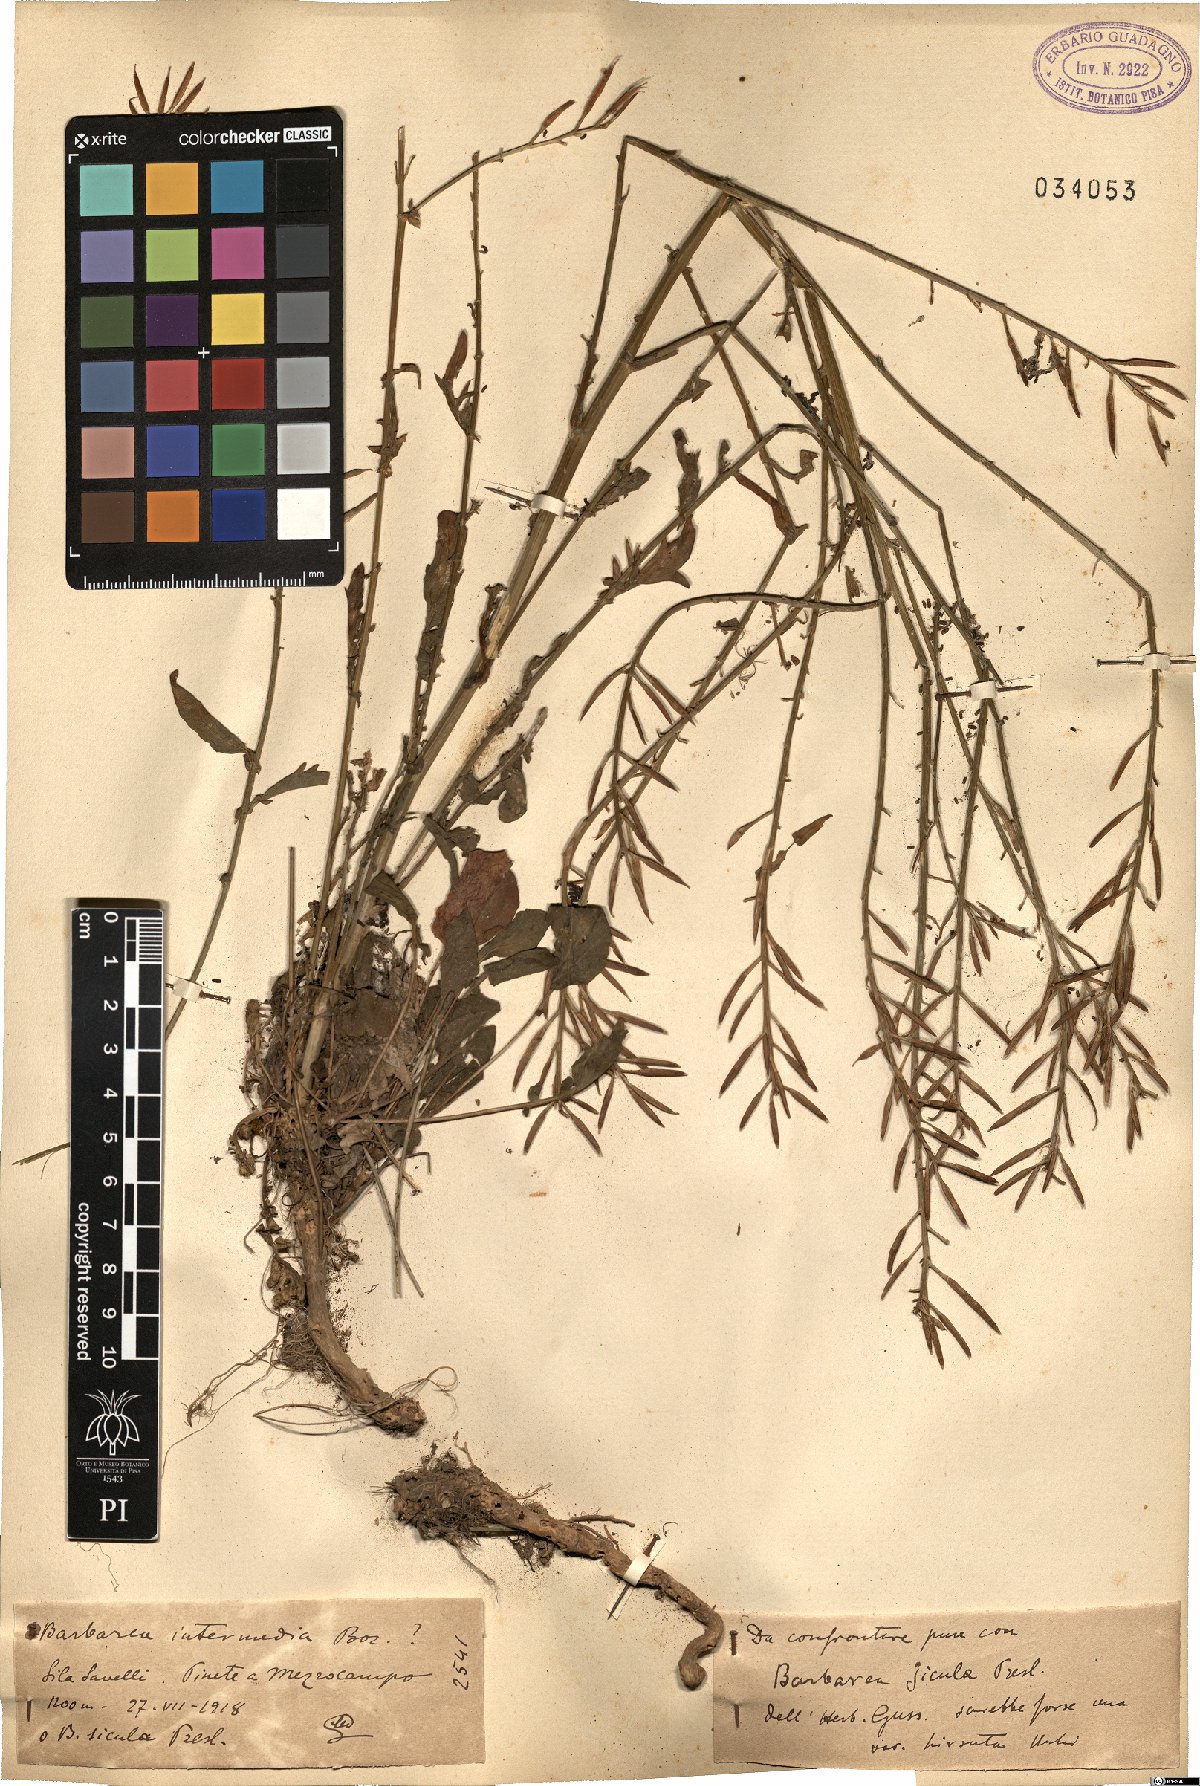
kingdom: Plantae
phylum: Tracheophyta
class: Magnoliopsida
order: Brassicales
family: Brassicaceae
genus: Barbarea
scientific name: Barbarea intermedia
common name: Medium-flowered winter-cress
